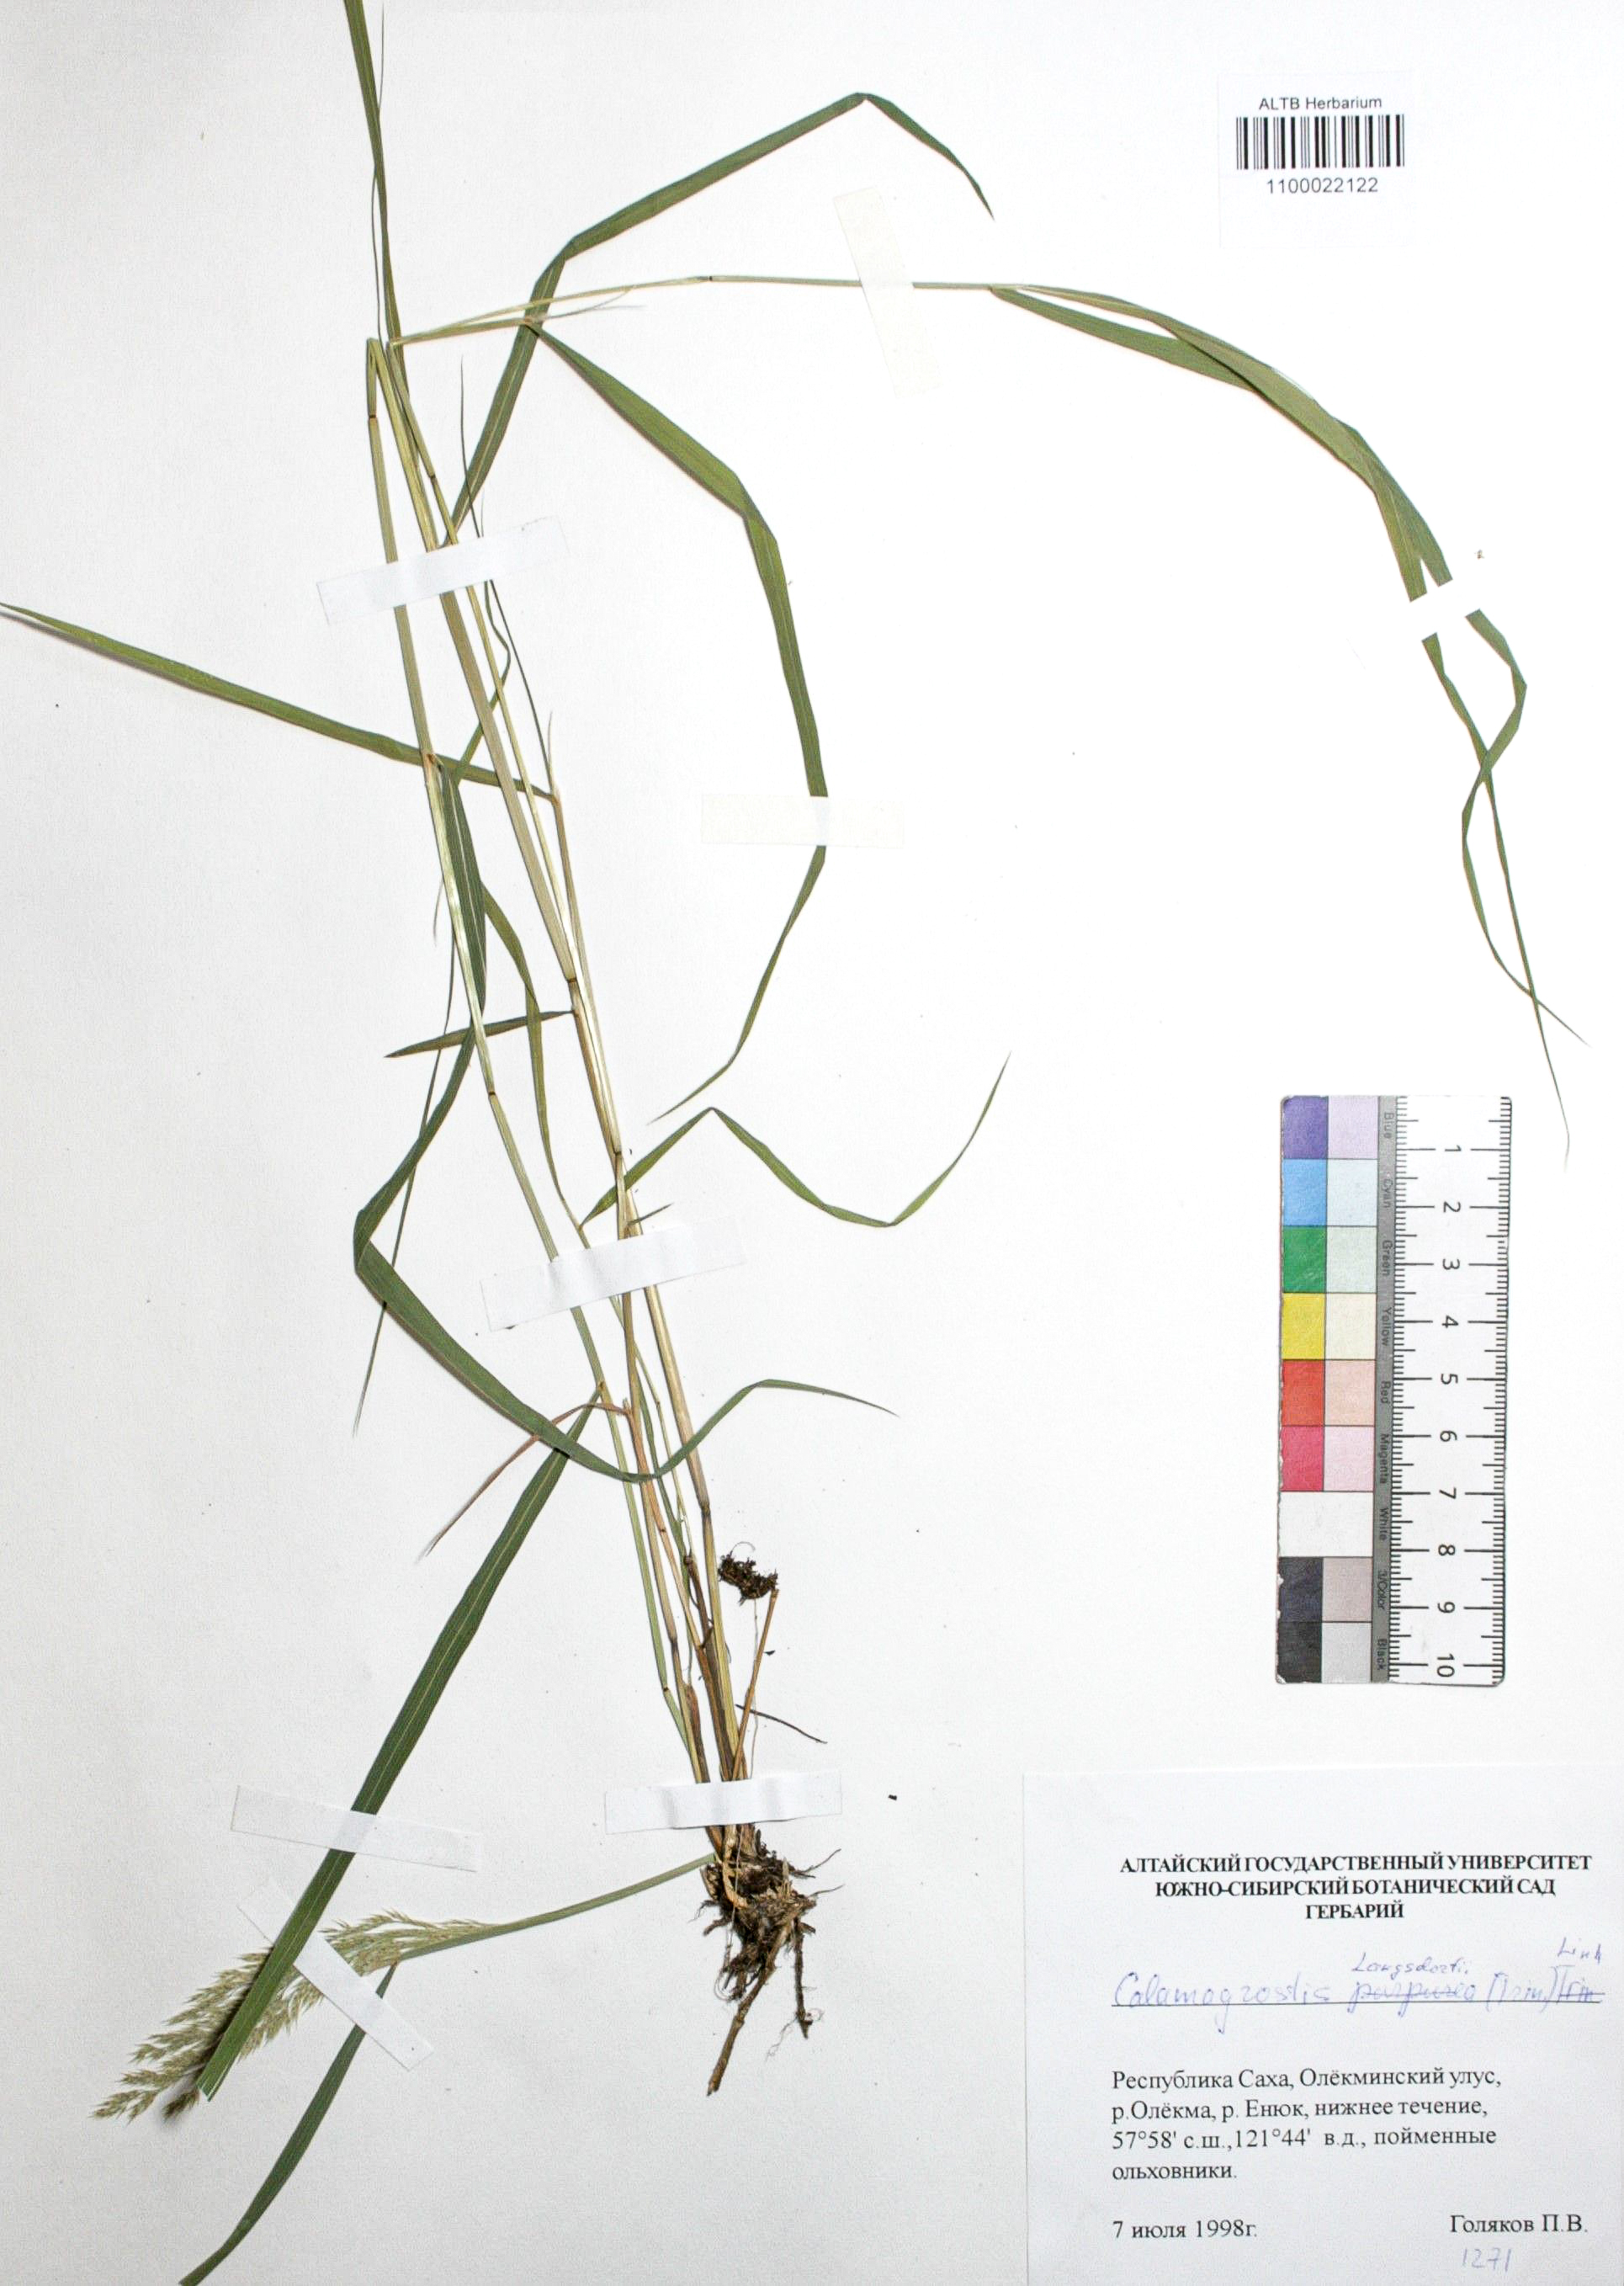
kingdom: Plantae
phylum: Tracheophyta
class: Liliopsida
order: Poales
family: Poaceae
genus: Calamagrostis
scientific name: Calamagrostis purpurea
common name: Scandinavian small-reed
